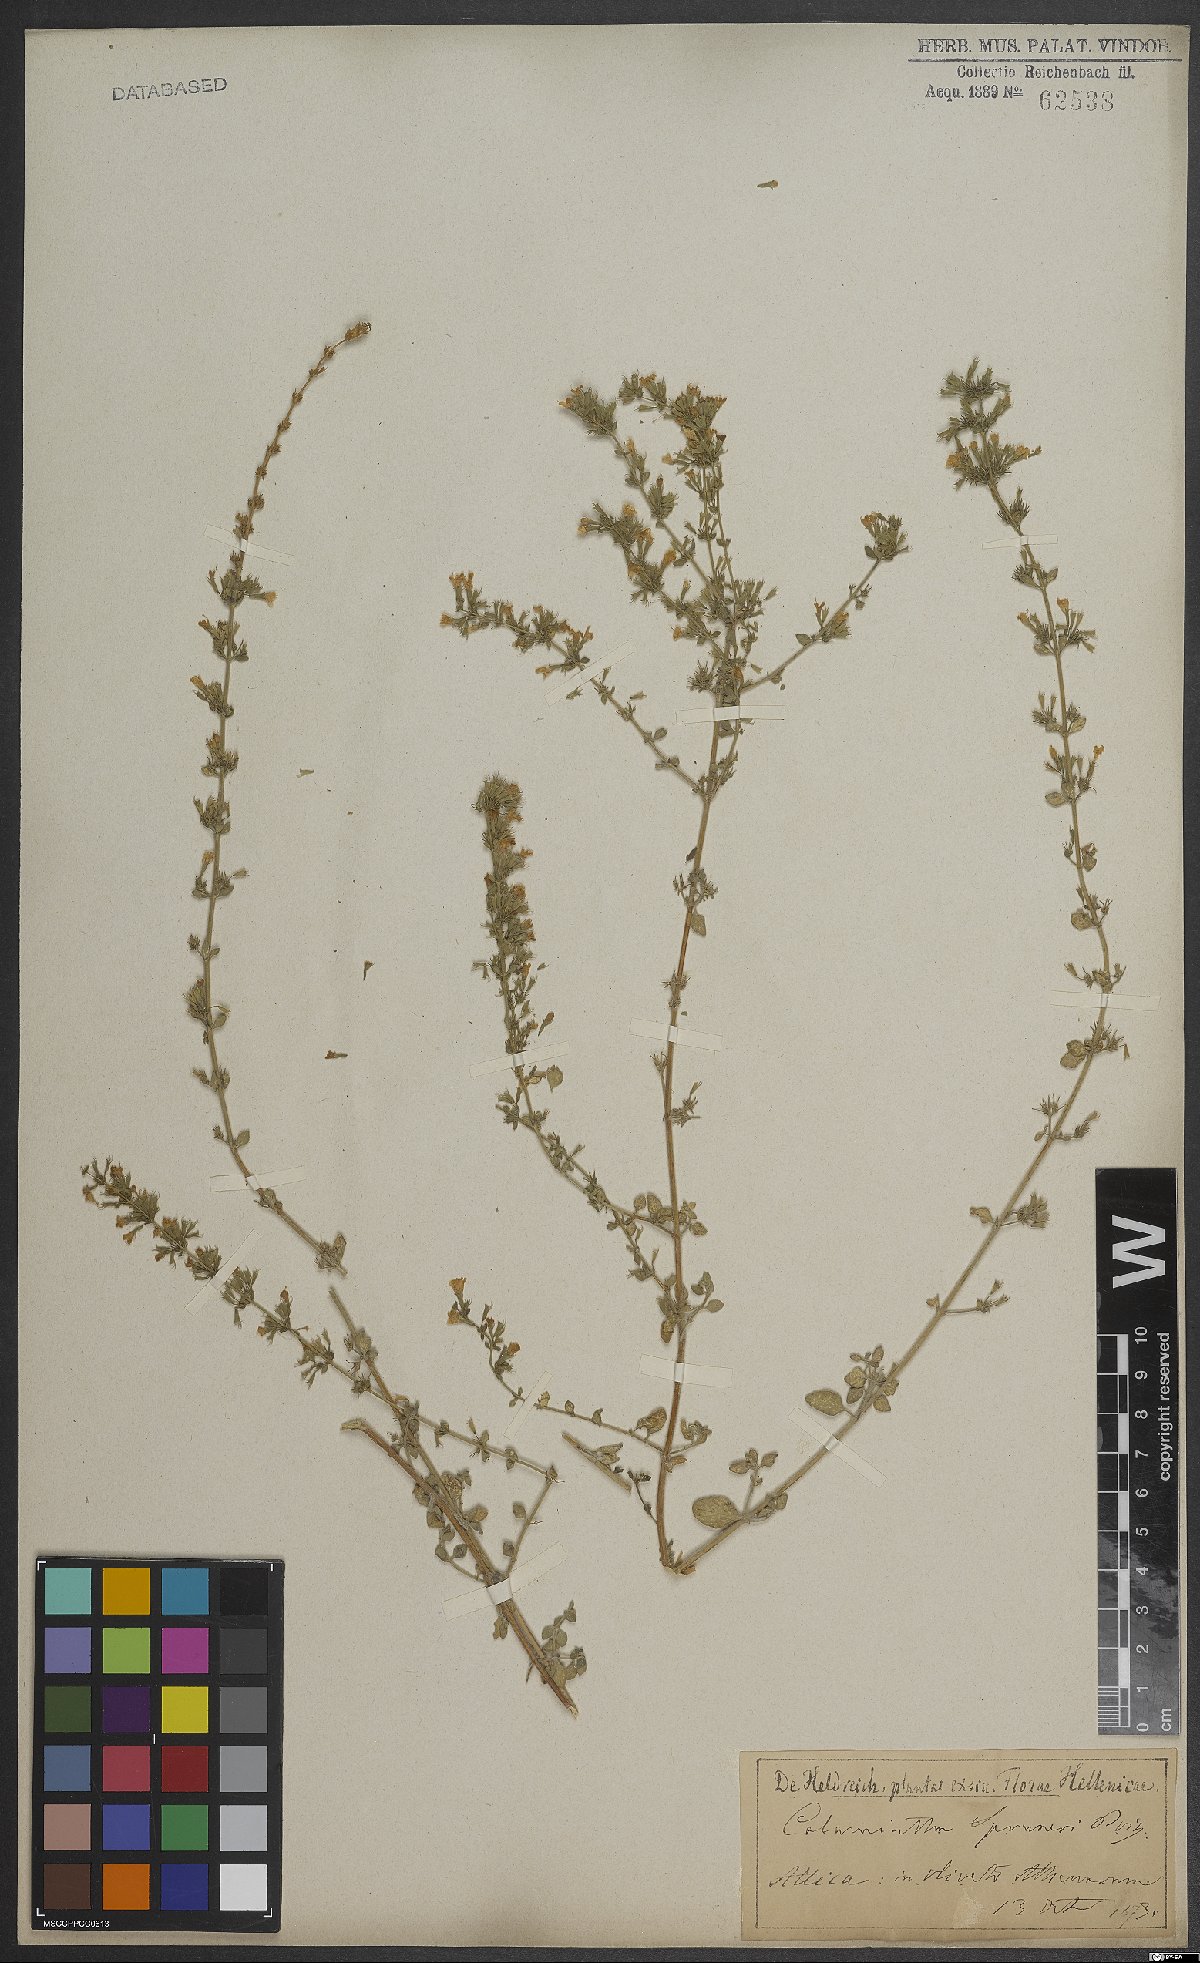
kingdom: Plantae
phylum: Tracheophyta
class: Magnoliopsida
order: Lamiales
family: Lamiaceae
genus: Clinopodium
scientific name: Clinopodium nepeta
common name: Lesser calamint
